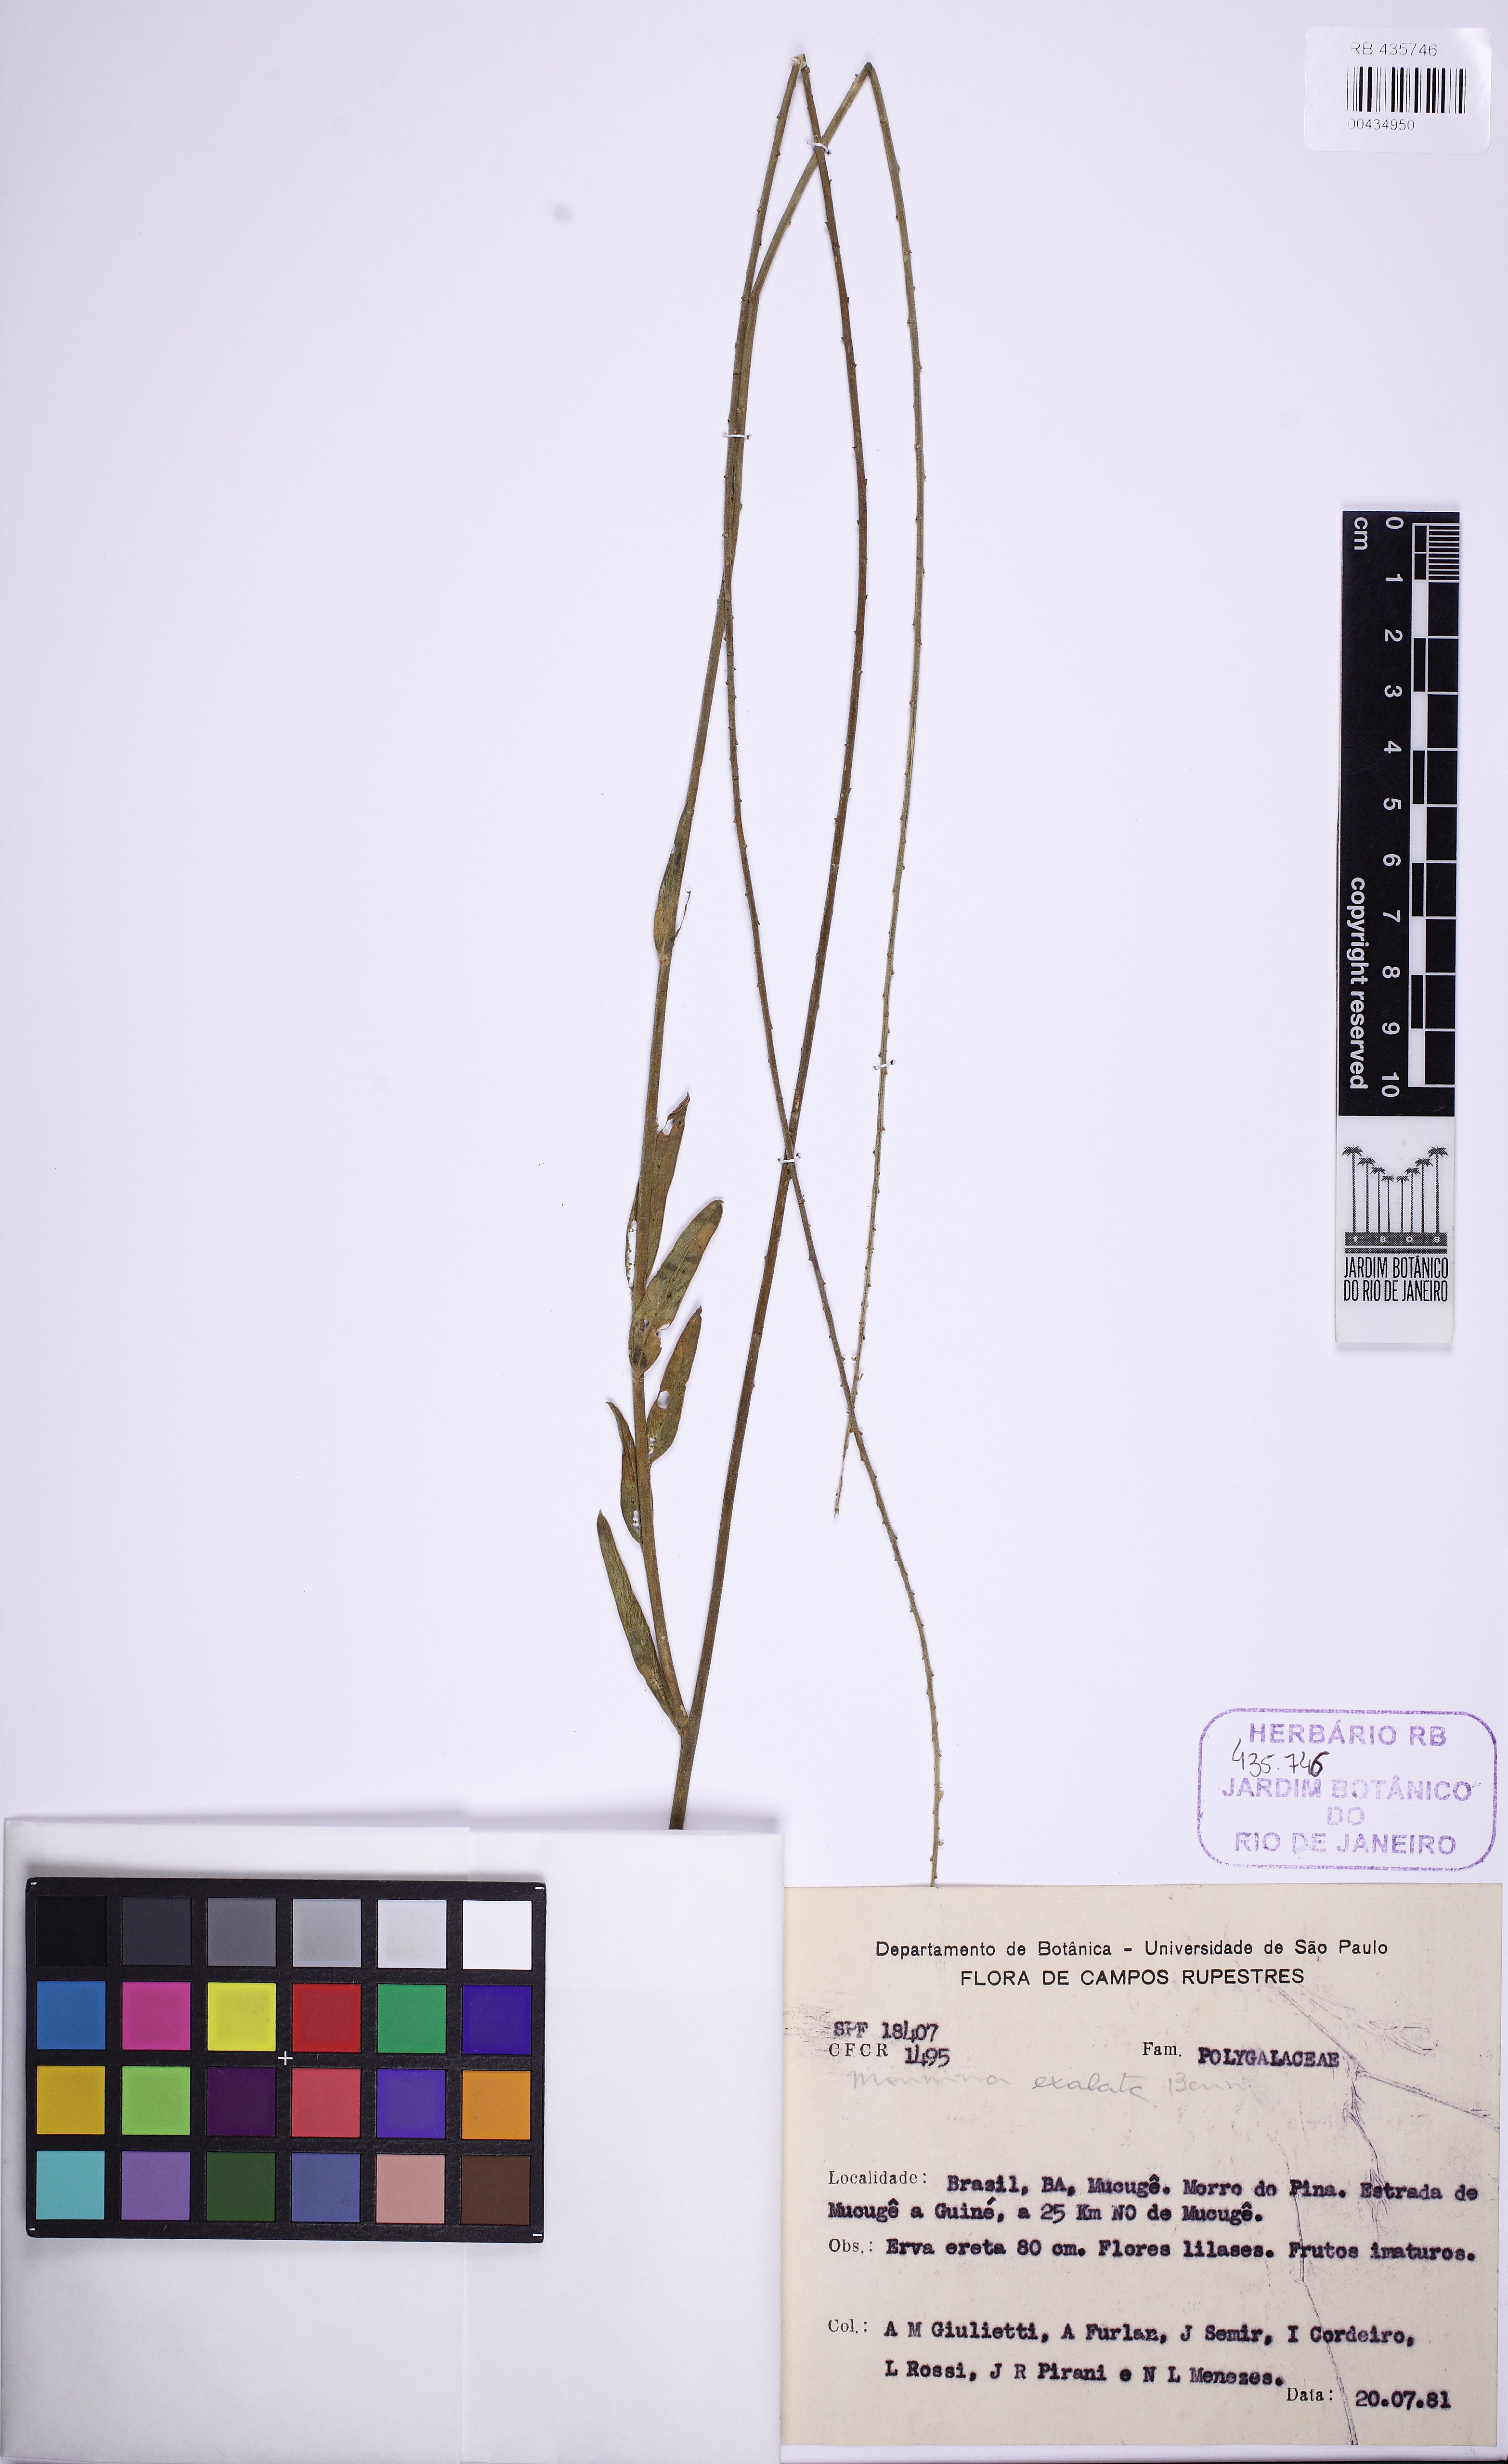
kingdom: Plantae
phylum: Tracheophyta
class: Magnoliopsida
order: Fabales
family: Polygalaceae
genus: Monnina
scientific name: Monnina exalata
